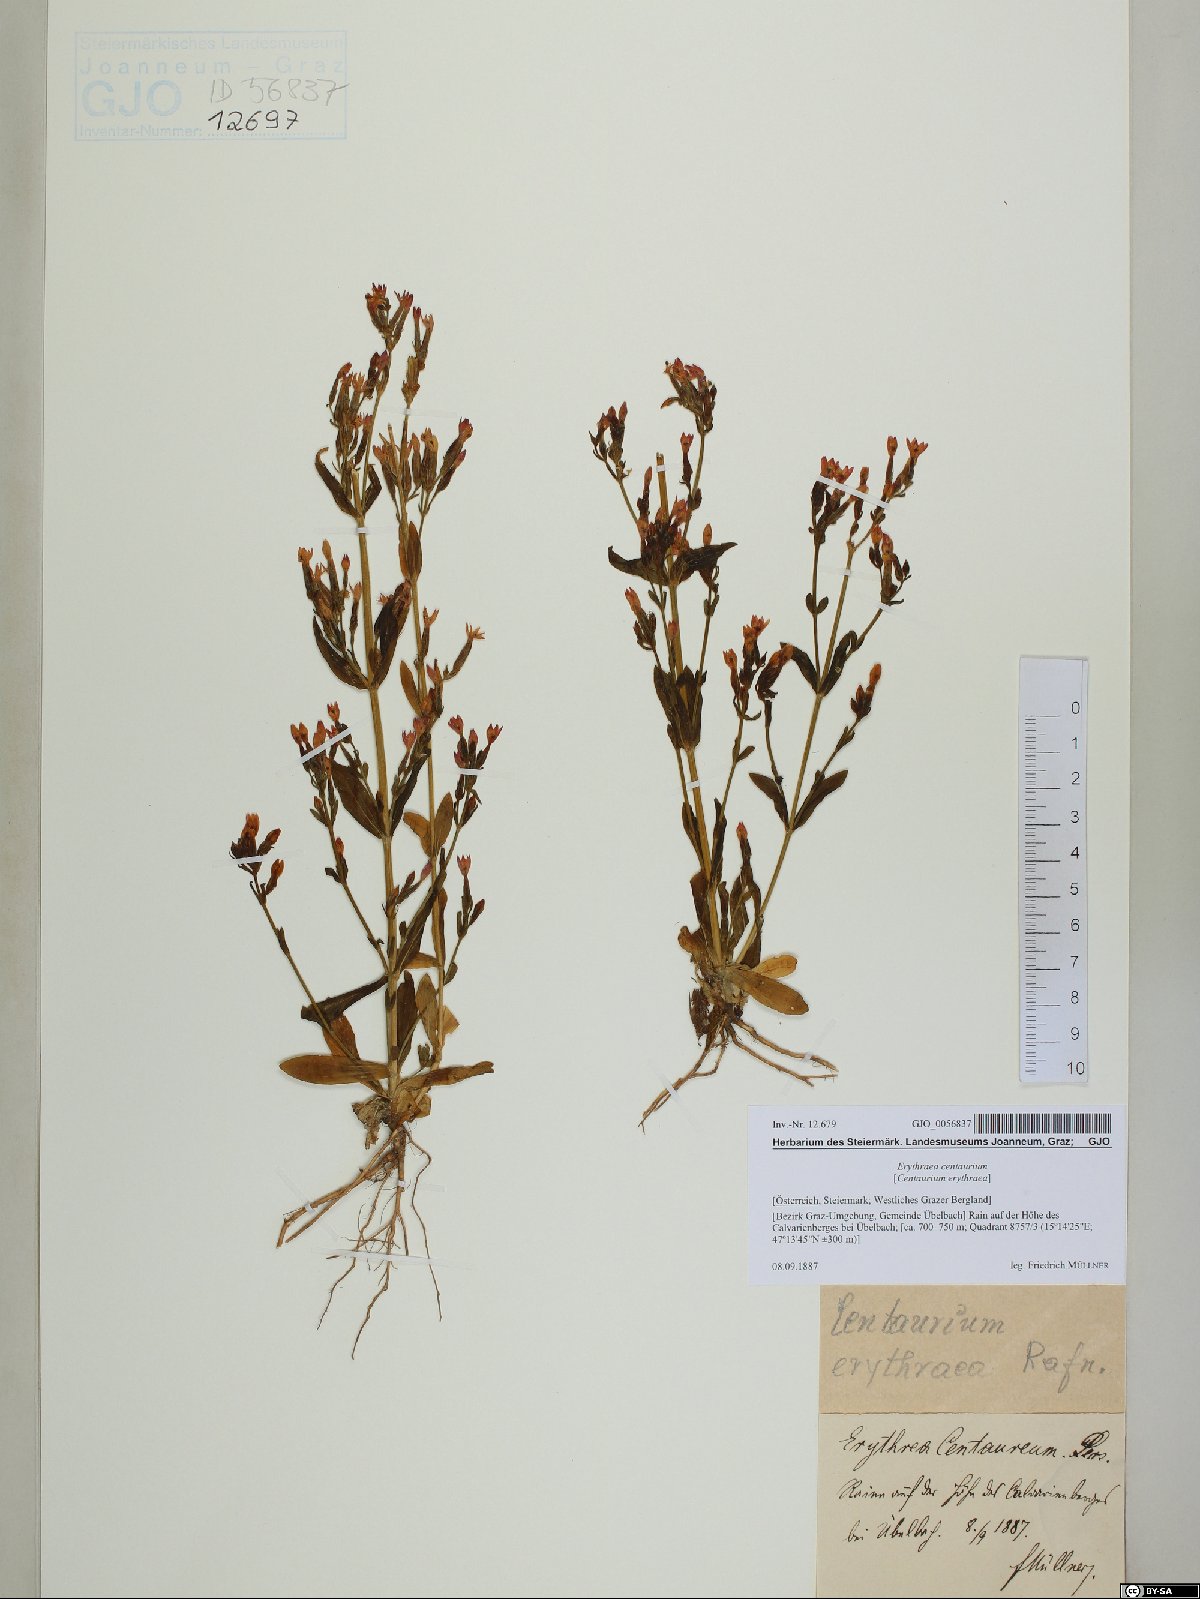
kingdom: Plantae
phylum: Tracheophyta
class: Magnoliopsida
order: Gentianales
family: Gentianaceae
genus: Centaurium
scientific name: Centaurium erythraea
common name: Common centaury
